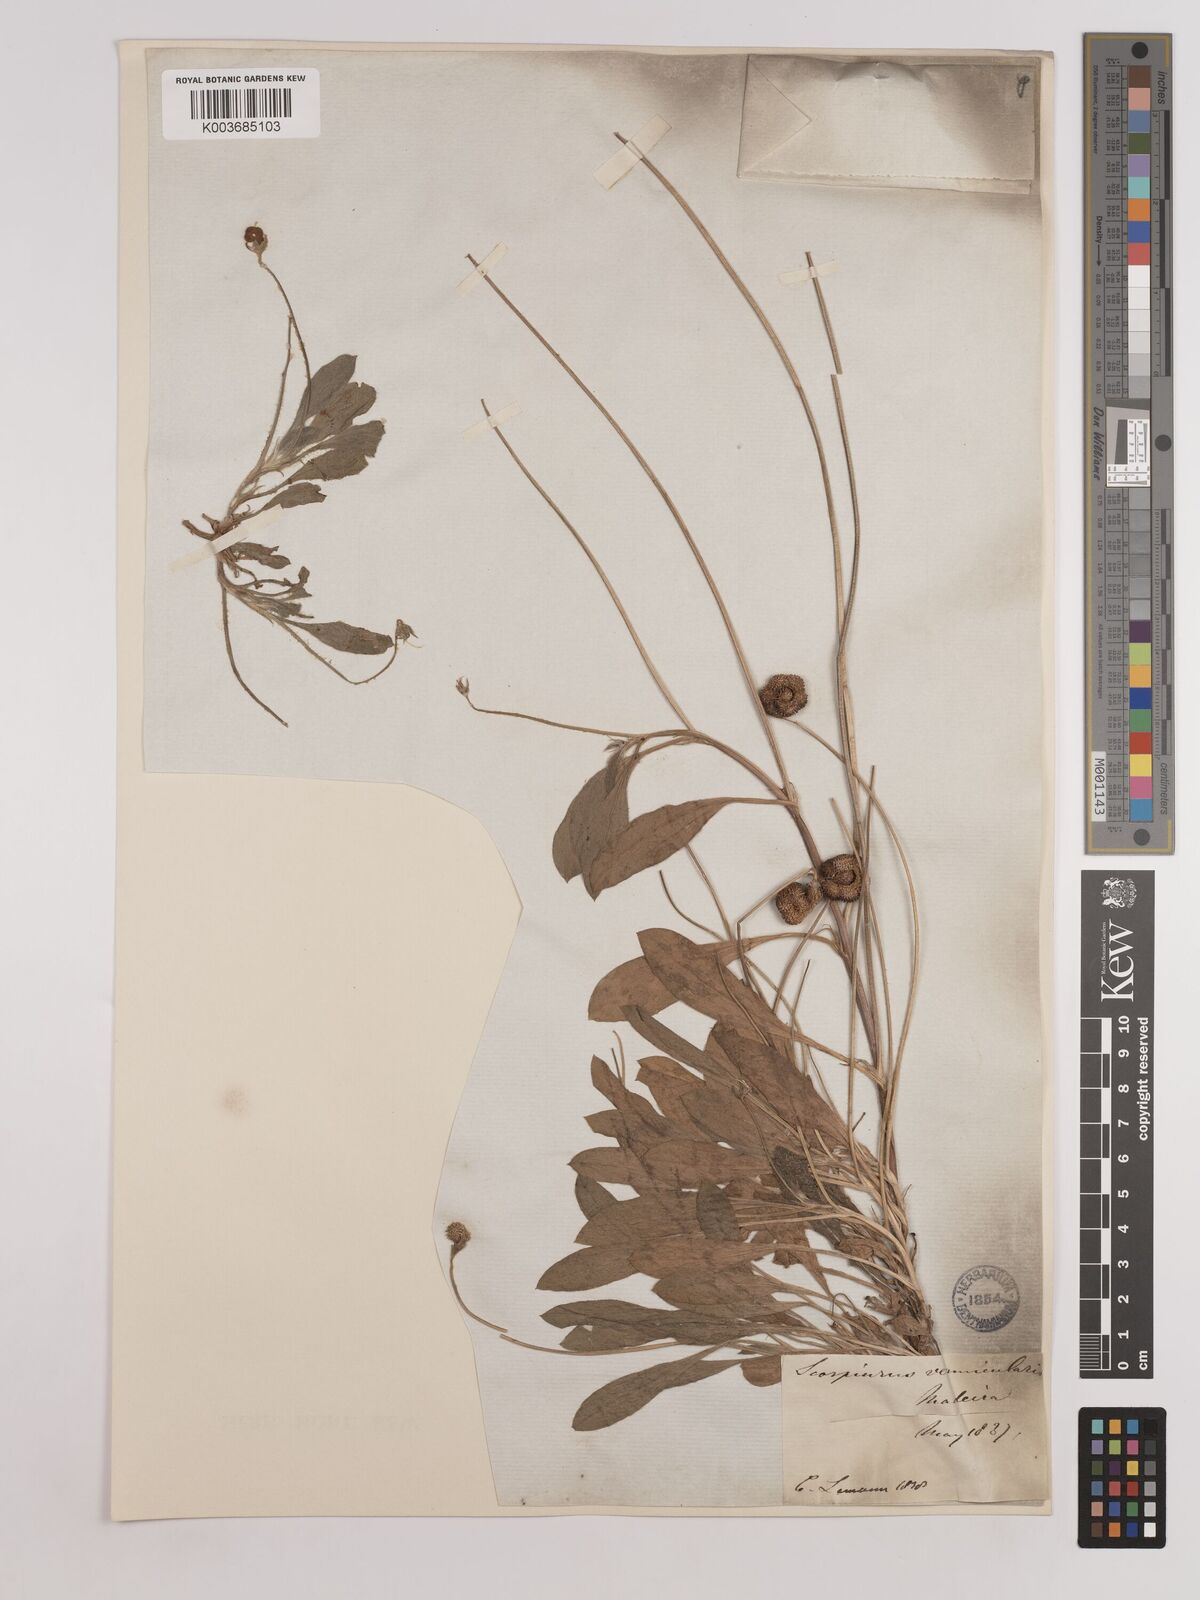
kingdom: Plantae
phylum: Tracheophyta
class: Magnoliopsida
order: Fabales
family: Fabaceae
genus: Scorpiurus
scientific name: Scorpiurus vermiculatus
